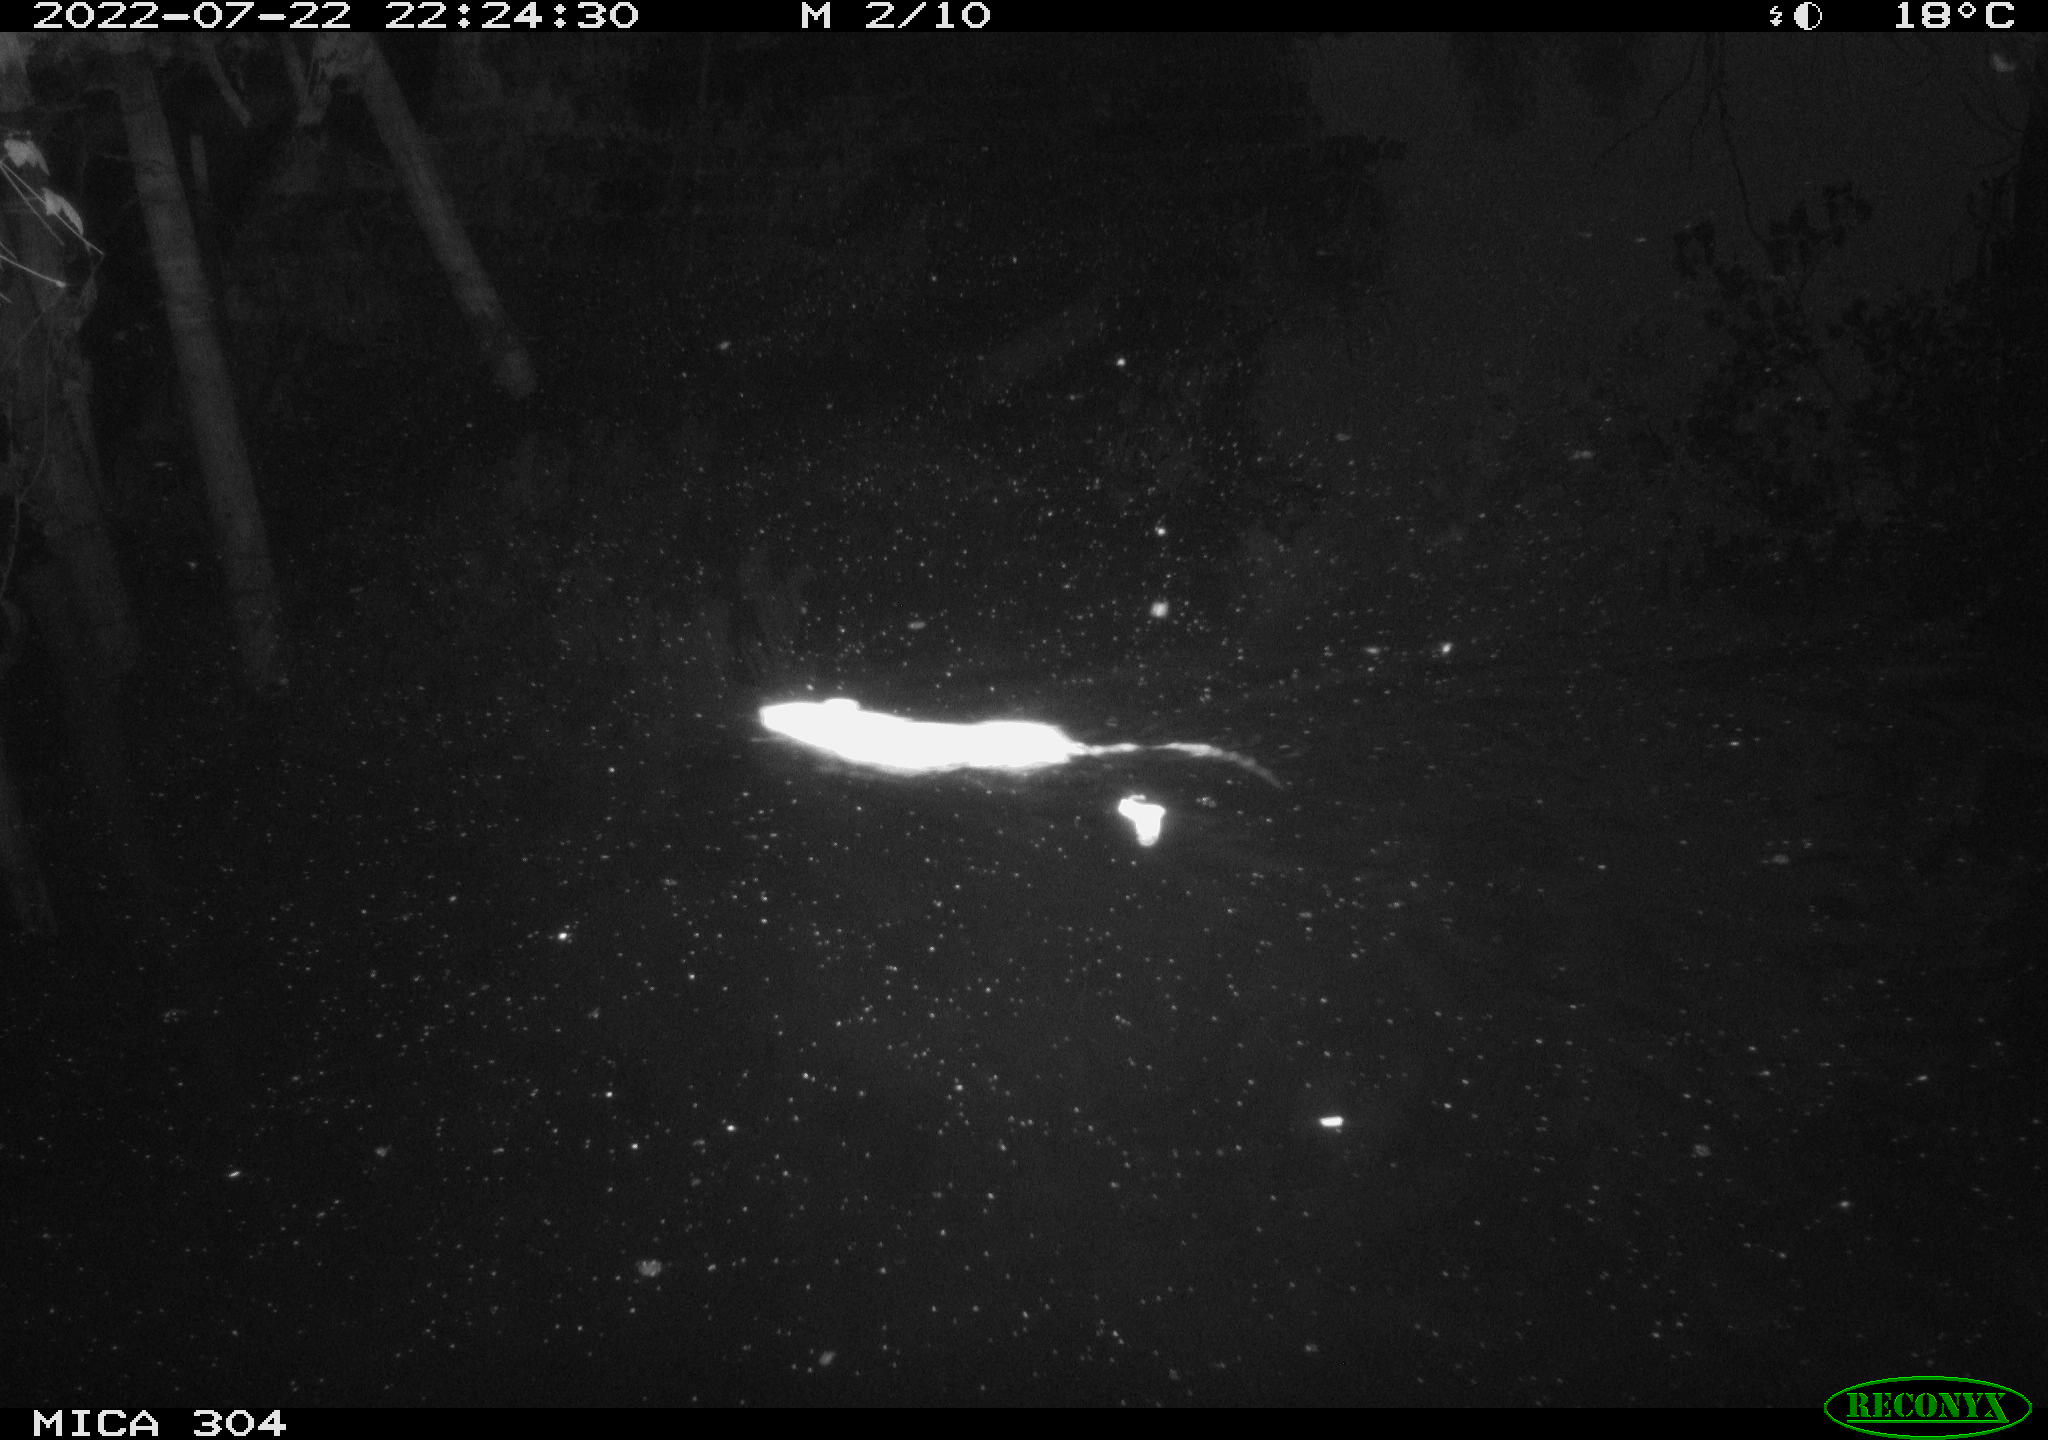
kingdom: Animalia
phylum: Chordata
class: Mammalia
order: Rodentia
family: Muridae
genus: Rattus
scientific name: Rattus norvegicus
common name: Brown rat
